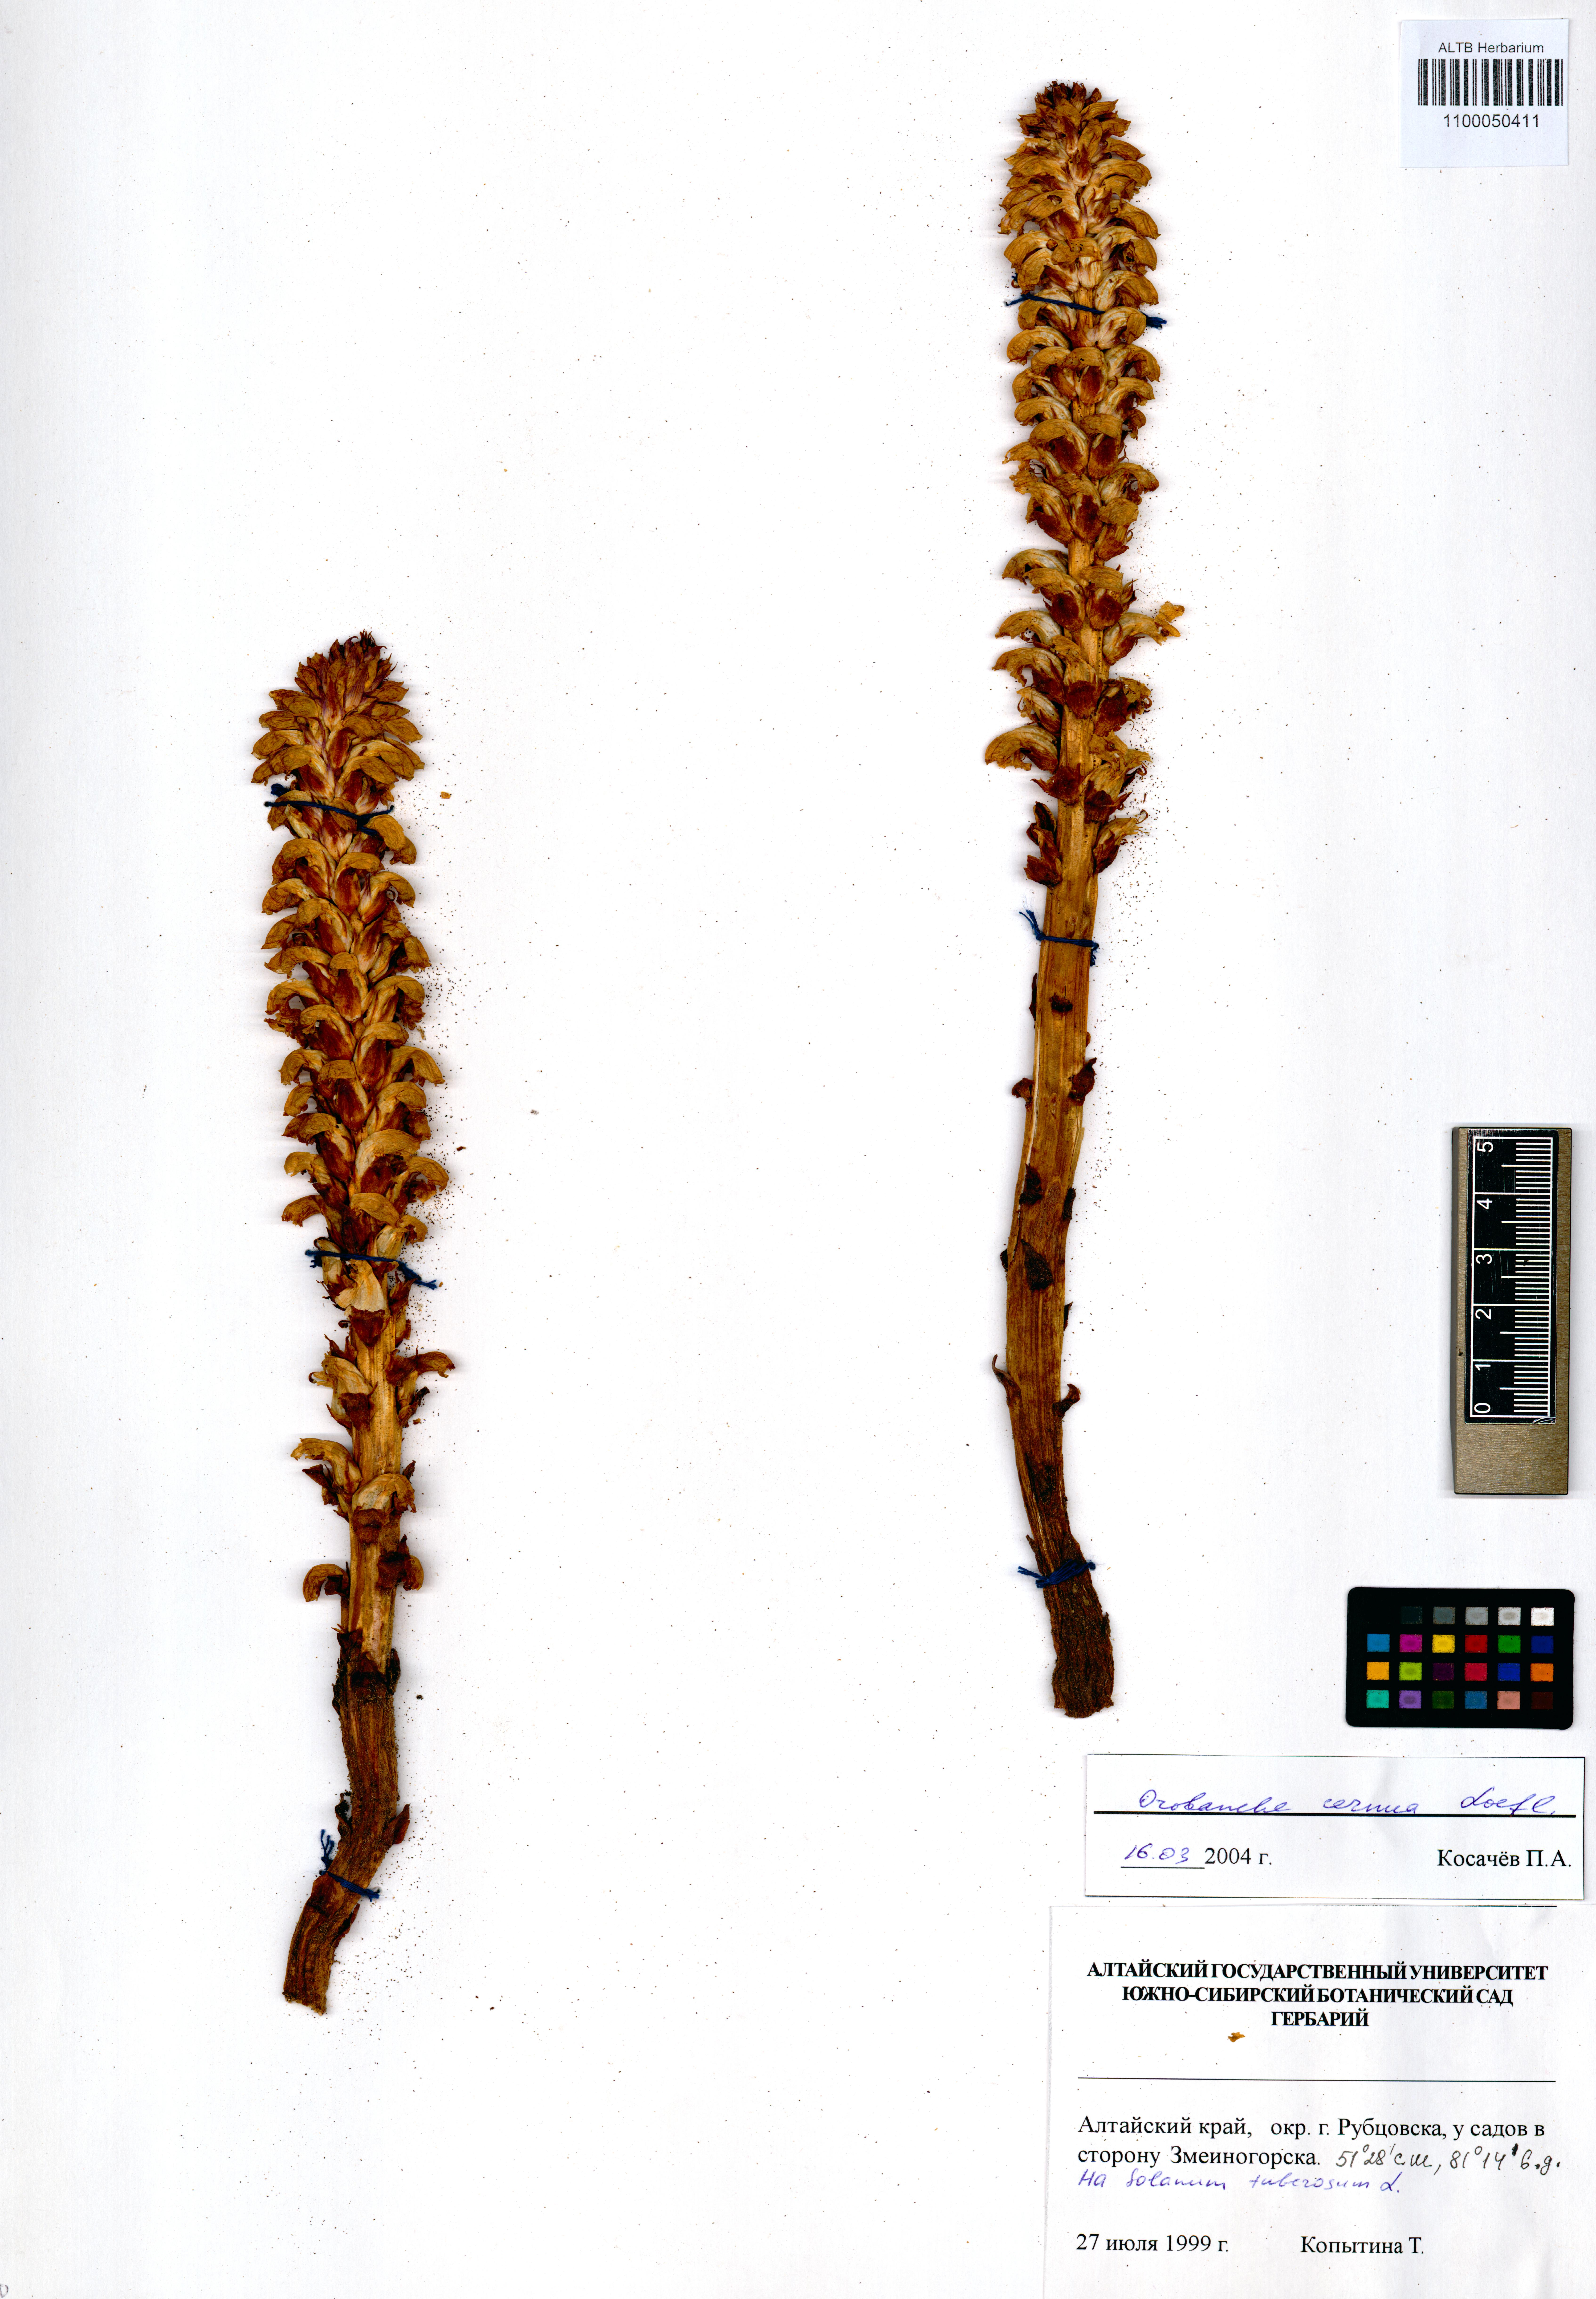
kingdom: Plantae
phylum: Tracheophyta
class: Magnoliopsida
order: Lamiales
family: Orobanchaceae
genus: Orobanche
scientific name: Orobanche cernua
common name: Australian broomrape
